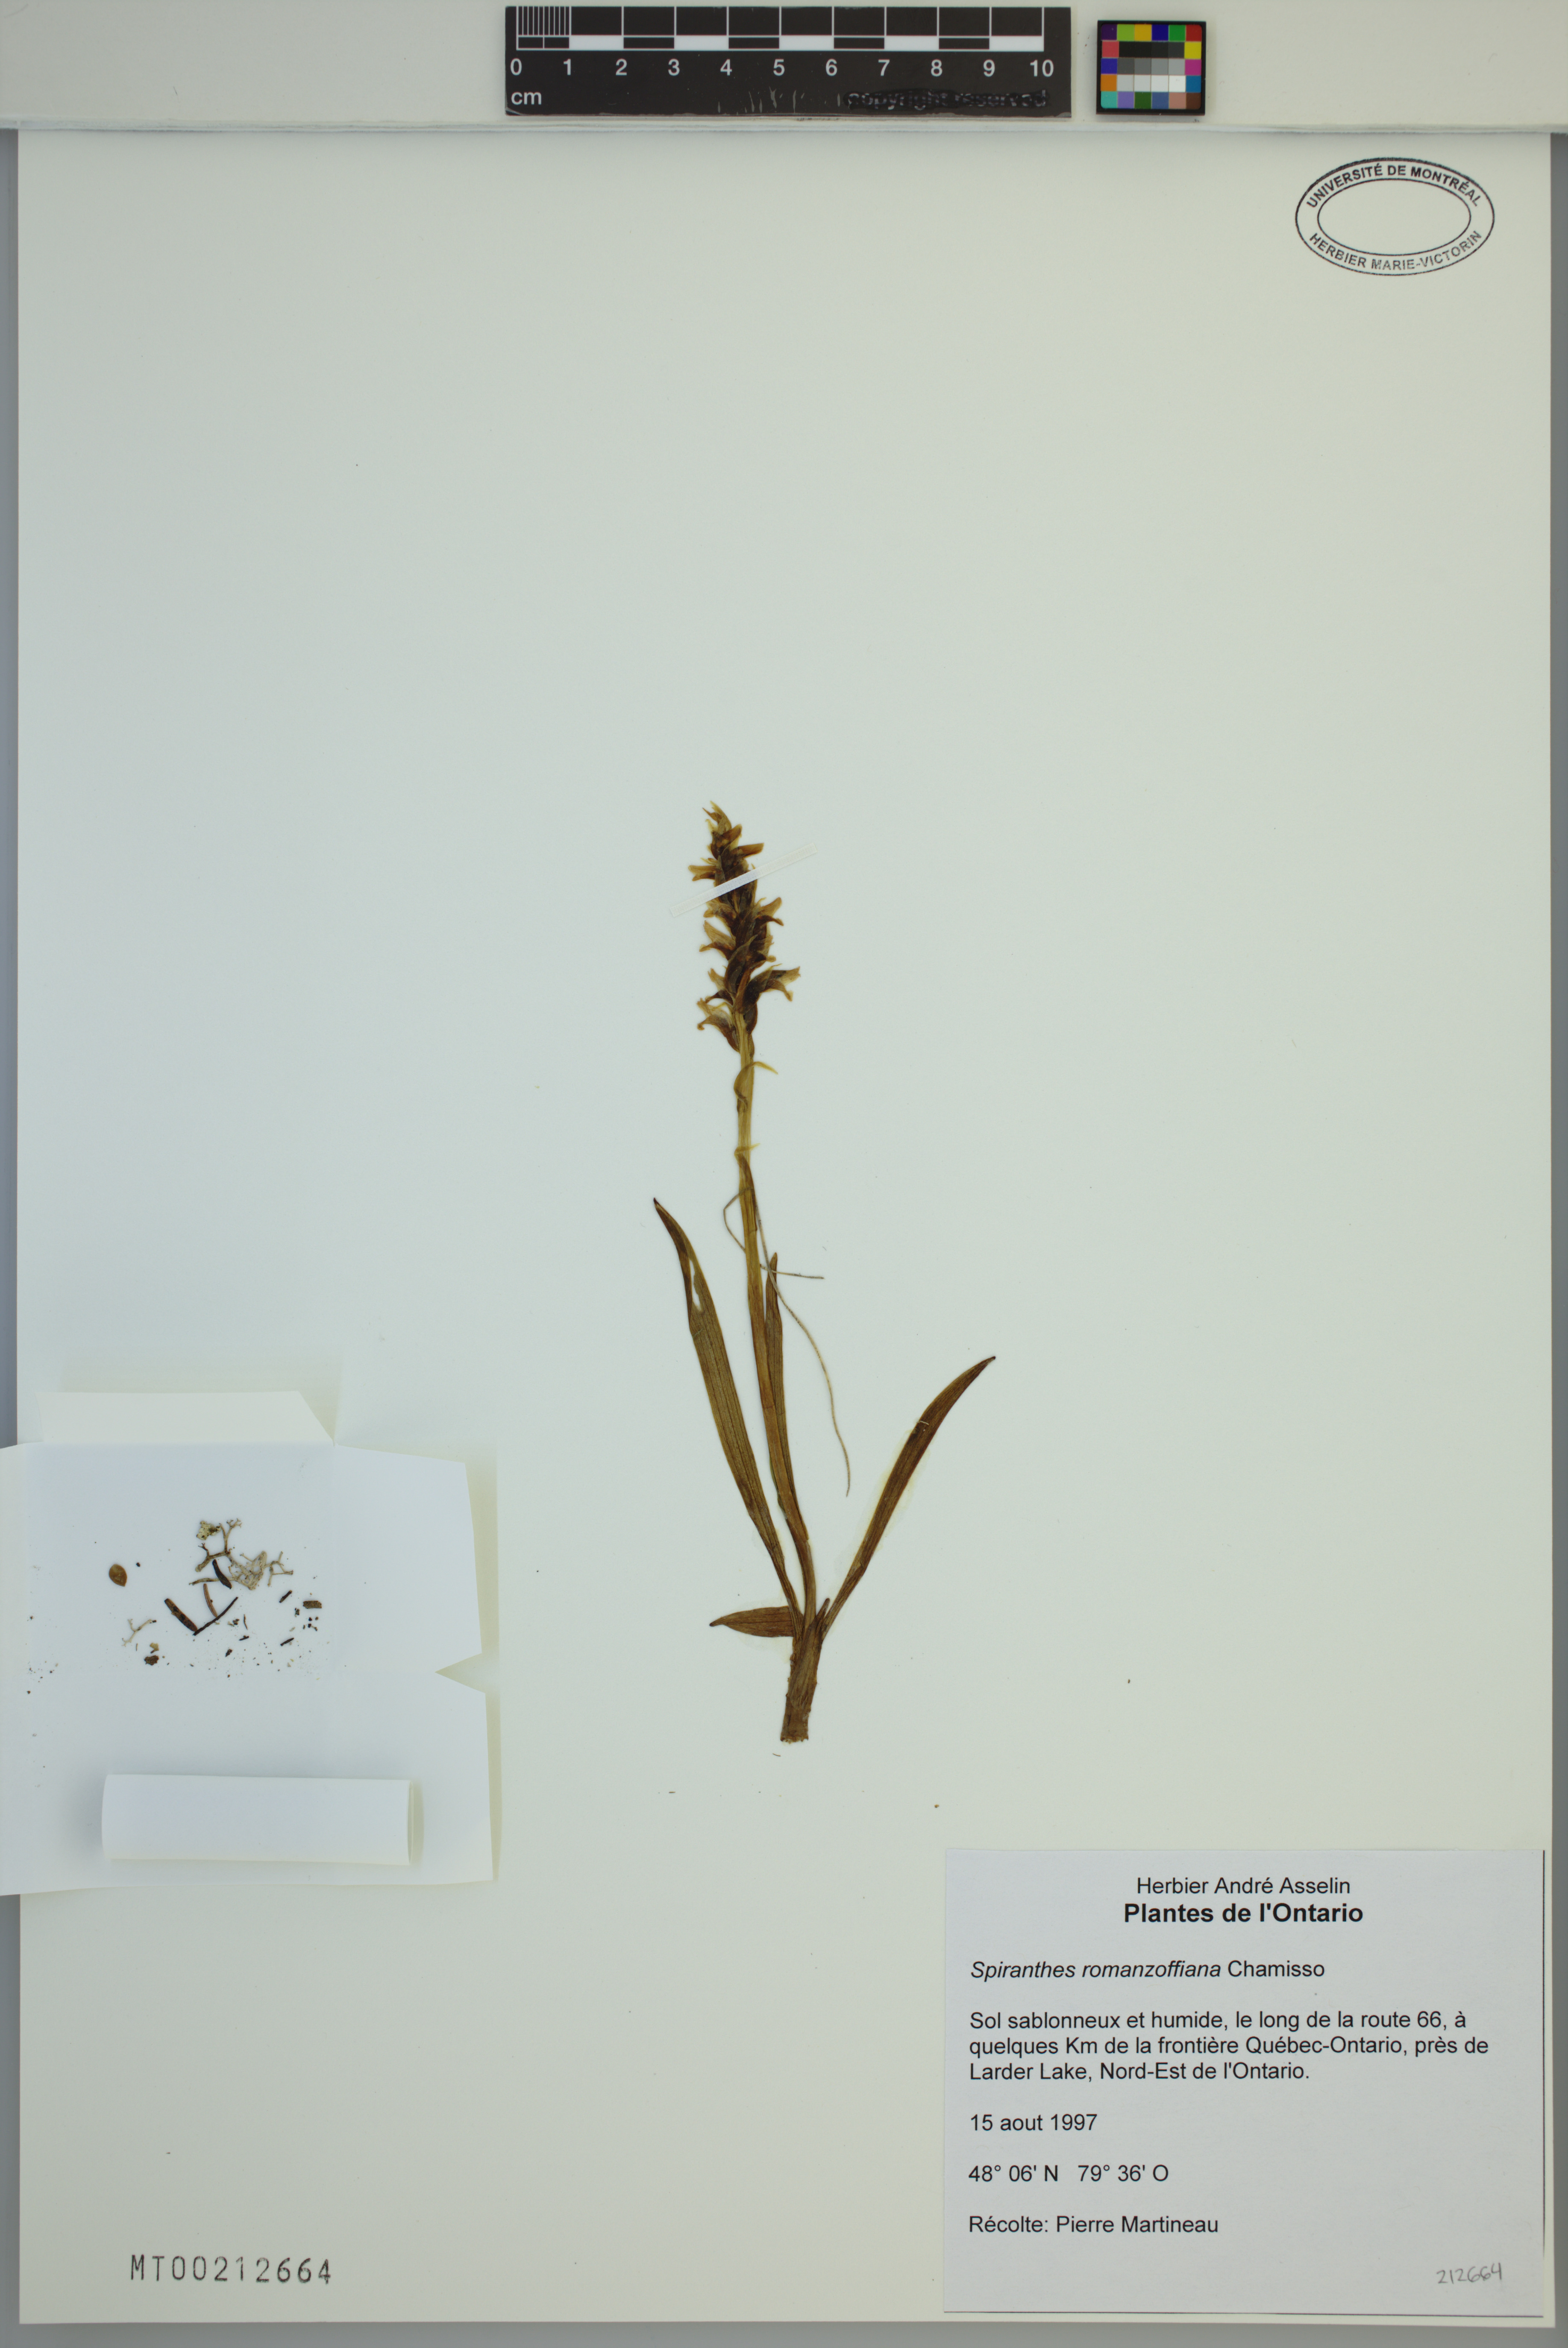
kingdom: Plantae
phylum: Tracheophyta
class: Liliopsida
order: Asparagales
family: Orchidaceae
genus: Spiranthes
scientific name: Spiranthes romanzoffiana
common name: Irish lady's-tresses
